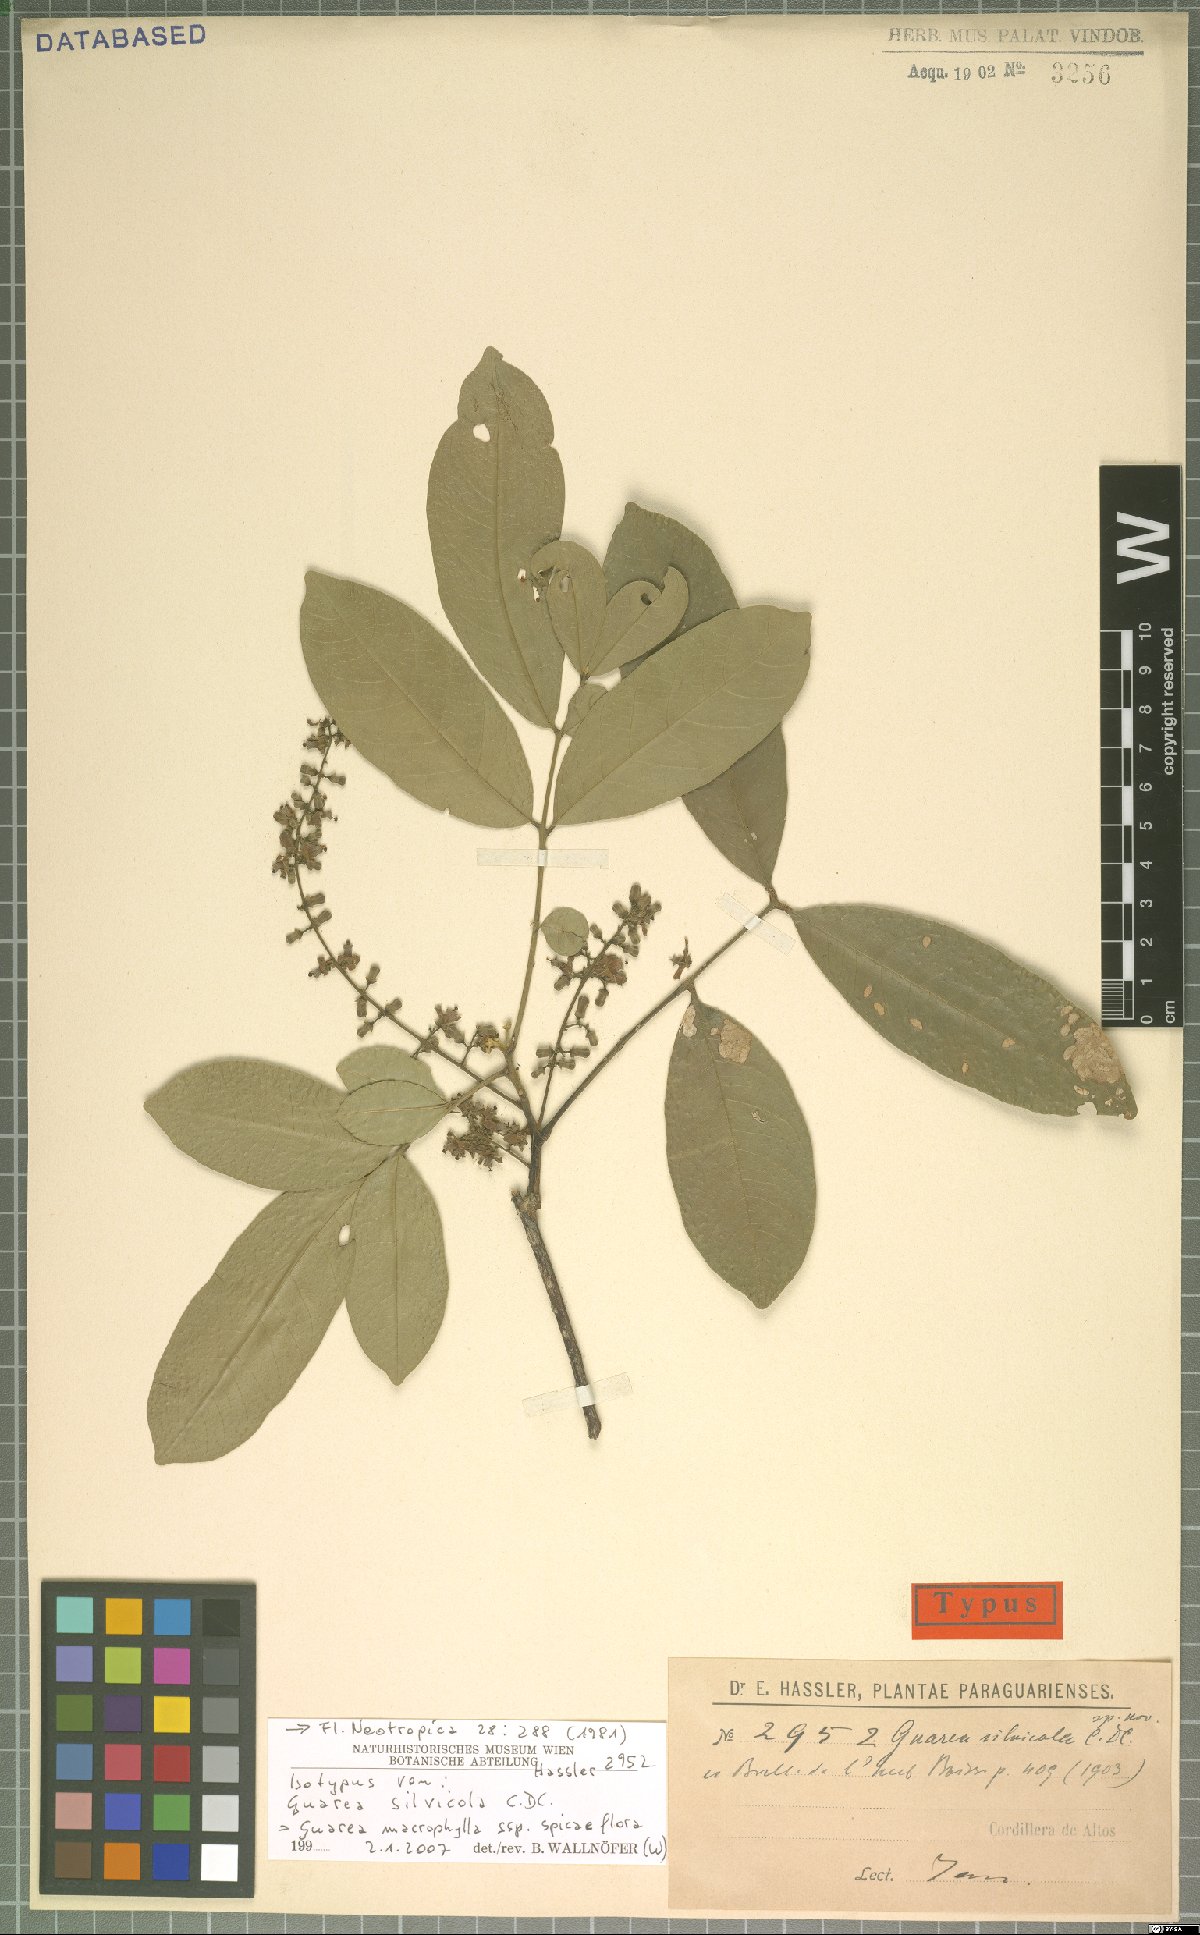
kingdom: Plantae
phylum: Tracheophyta
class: Magnoliopsida
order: Sapindales
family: Meliaceae
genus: Guarea
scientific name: Guarea macrophylla
